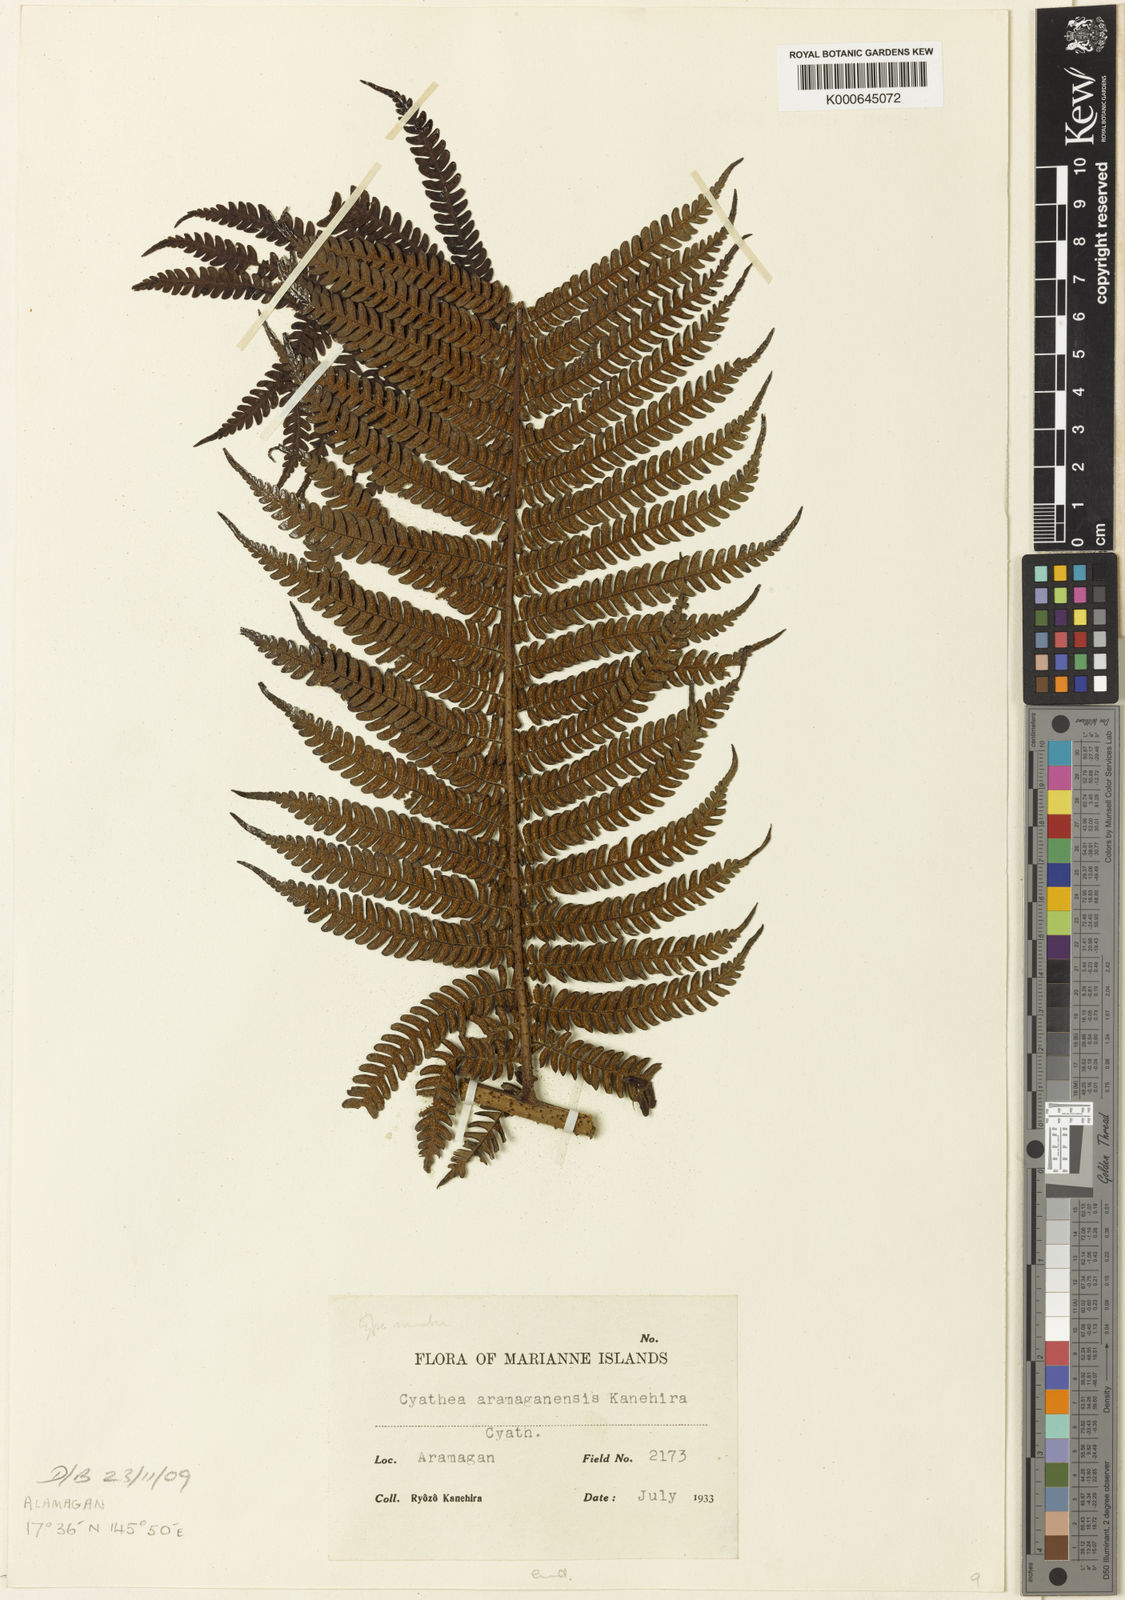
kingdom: Plantae
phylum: Tracheophyta
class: Polypodiopsida
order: Cyatheales
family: Cyatheaceae
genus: Sphaeropteris
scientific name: Sphaeropteris aramaganensis
